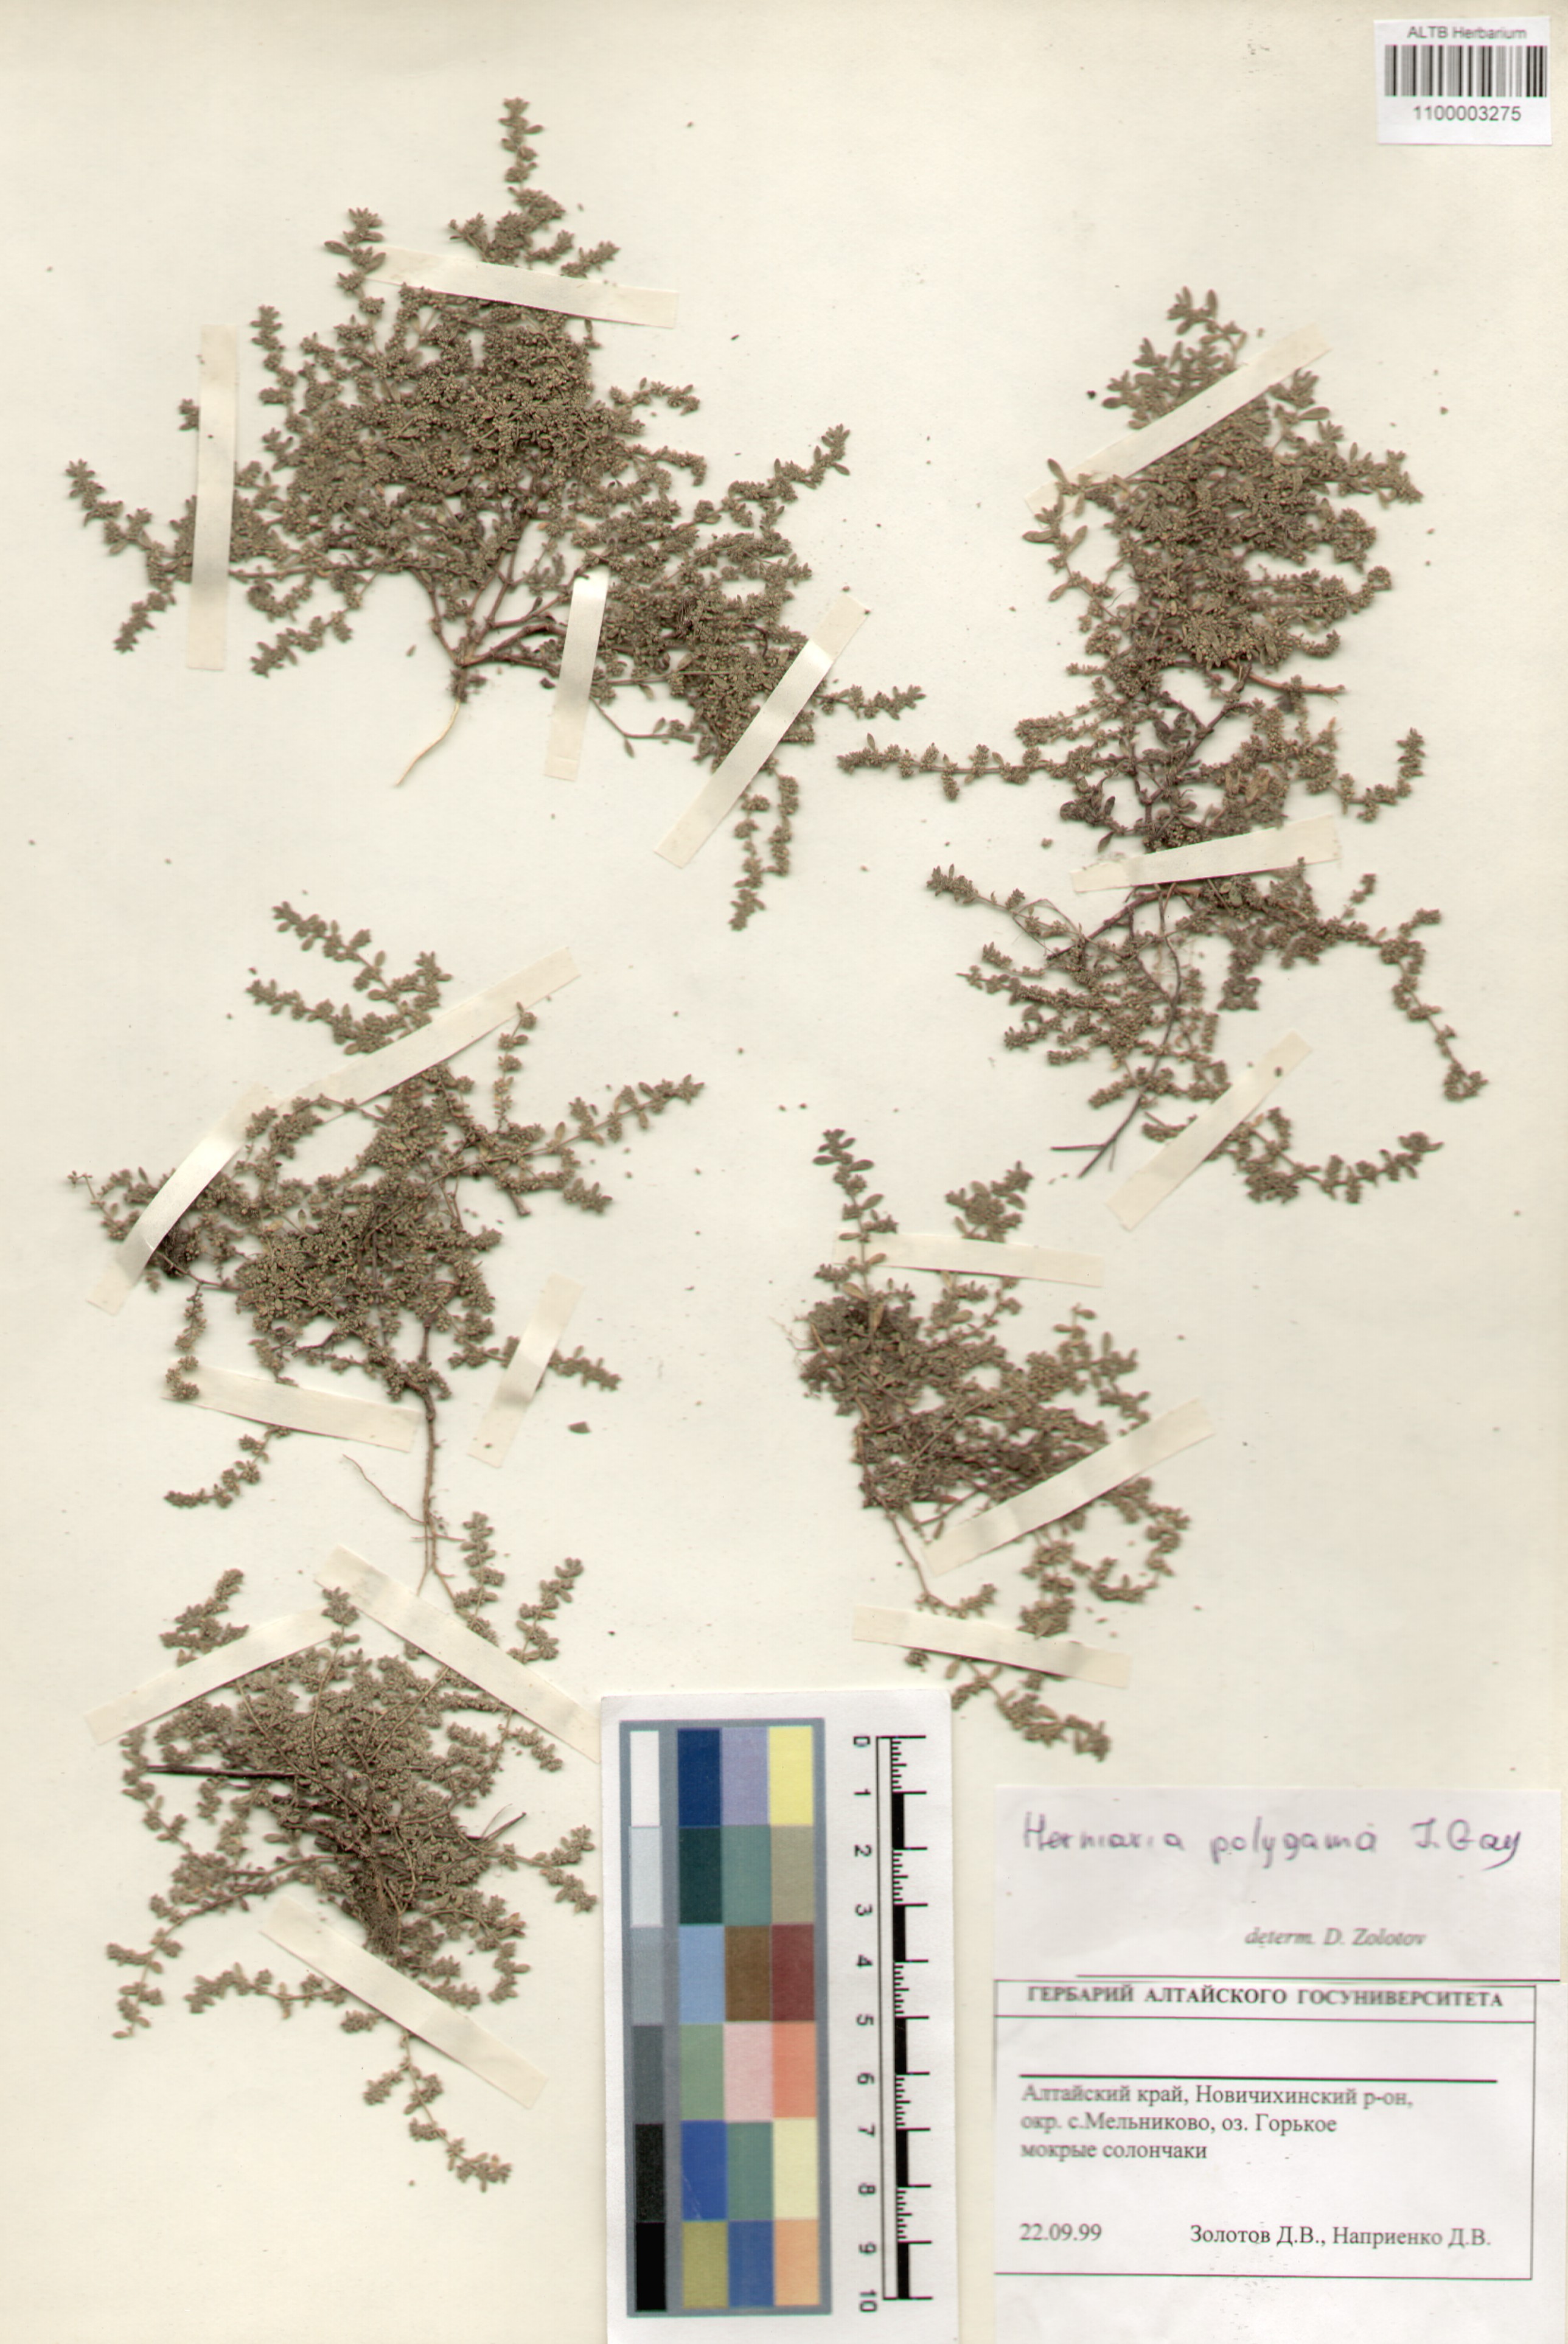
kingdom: Plantae
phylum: Tracheophyta
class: Magnoliopsida
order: Caryophyllales
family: Caryophyllaceae
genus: Herniaria
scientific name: Herniaria polygama
